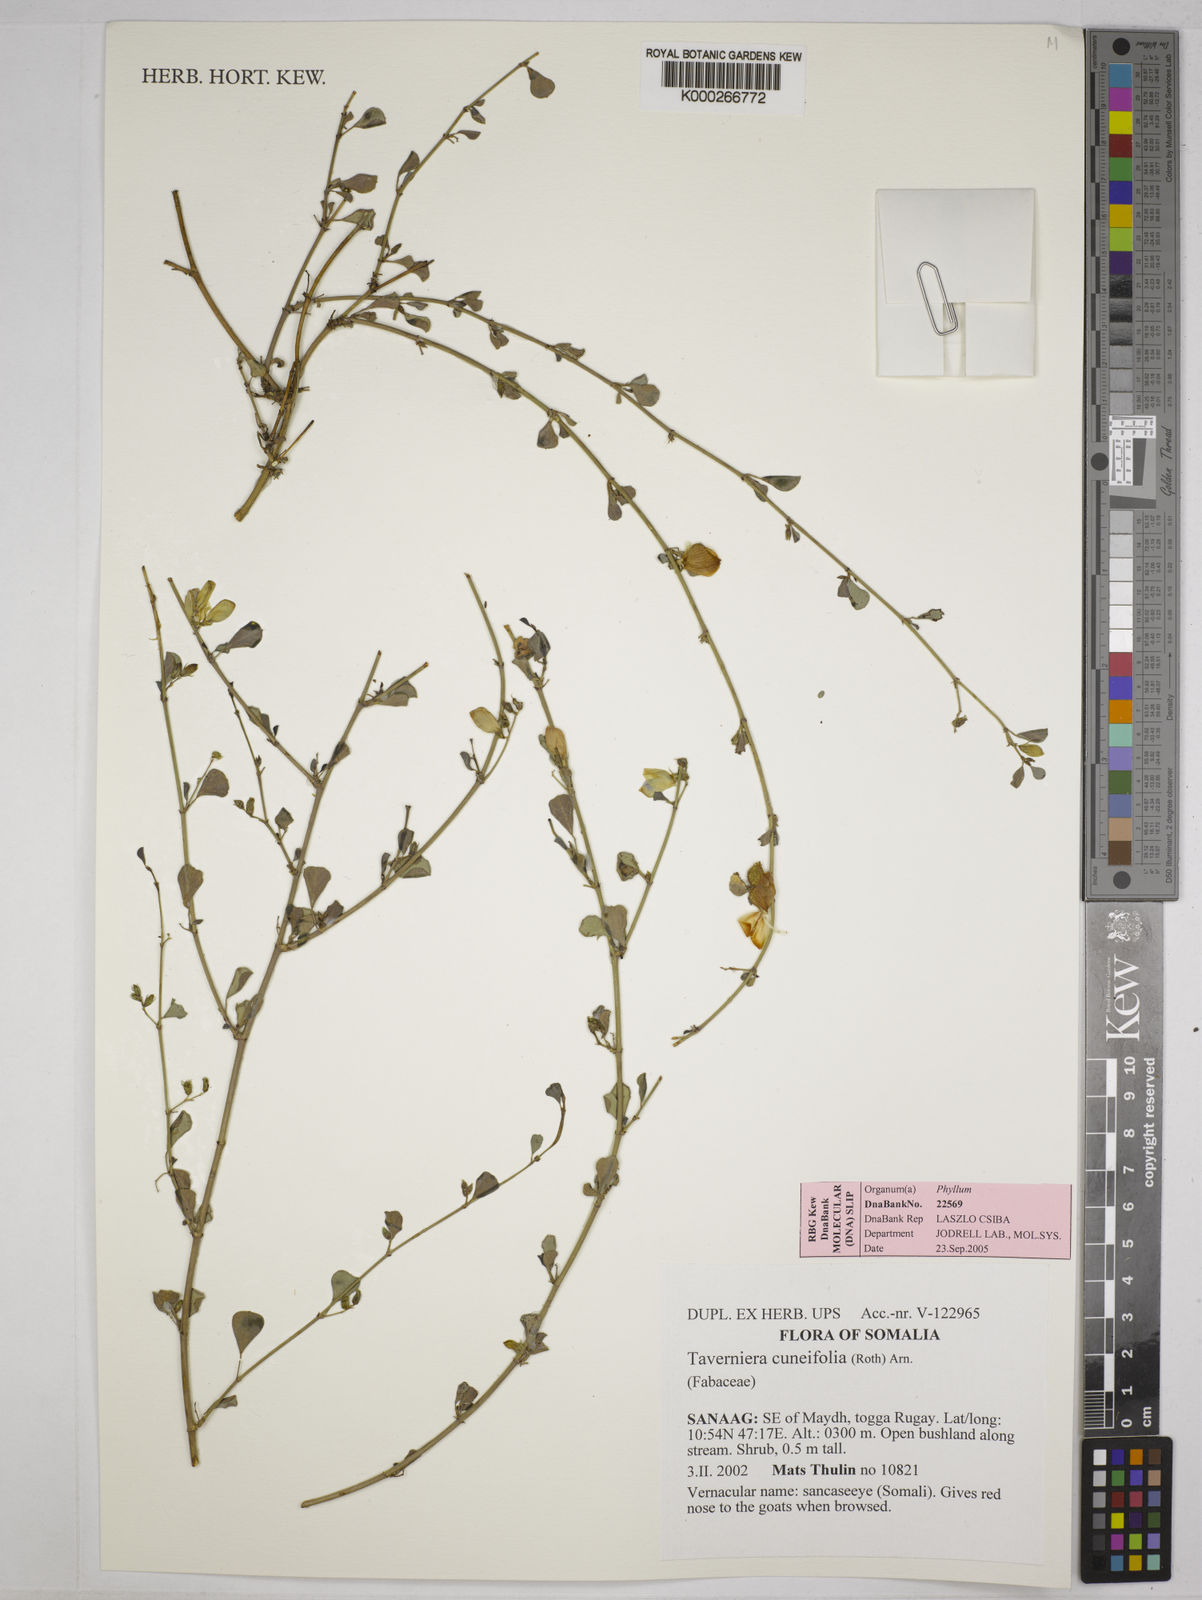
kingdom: Plantae
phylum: Tracheophyta
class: Magnoliopsida
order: Fabales
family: Fabaceae
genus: Taverniera
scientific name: Taverniera cuneifolia
